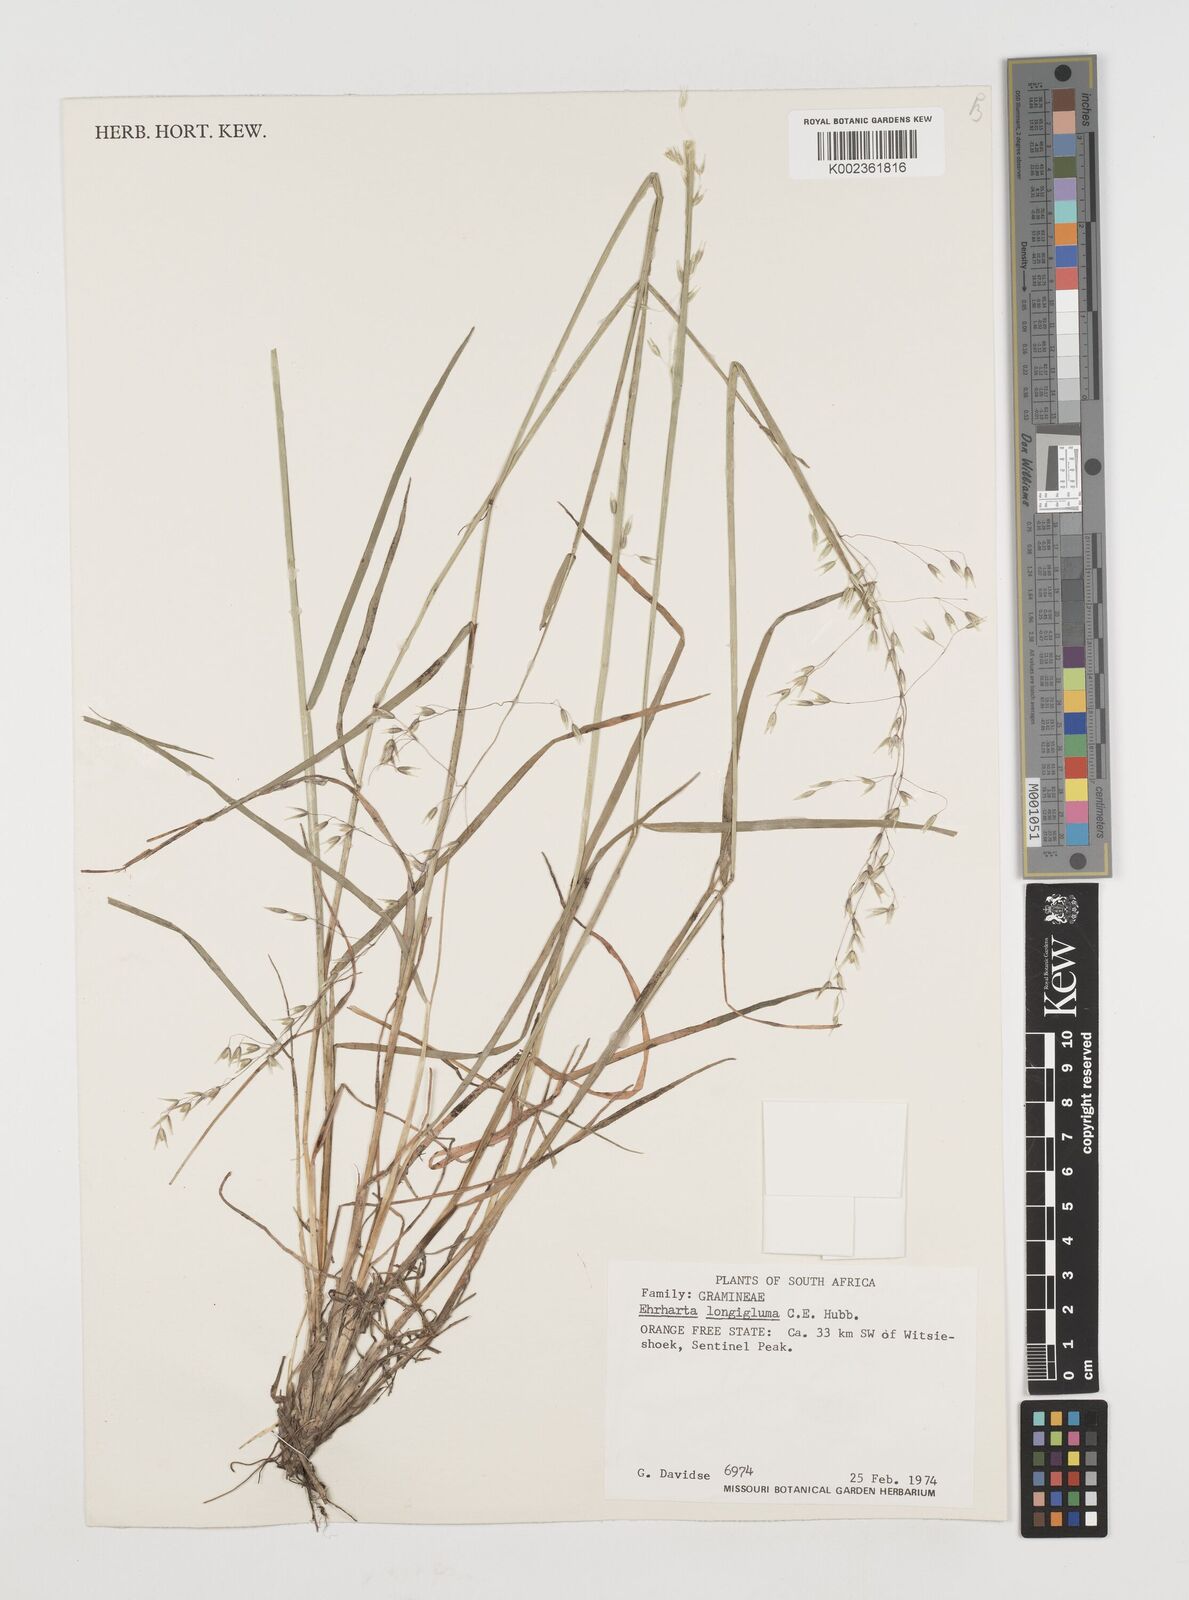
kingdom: Plantae
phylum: Tracheophyta
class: Liliopsida
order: Poales
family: Poaceae
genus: Ehrharta
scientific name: Ehrharta longigluma
